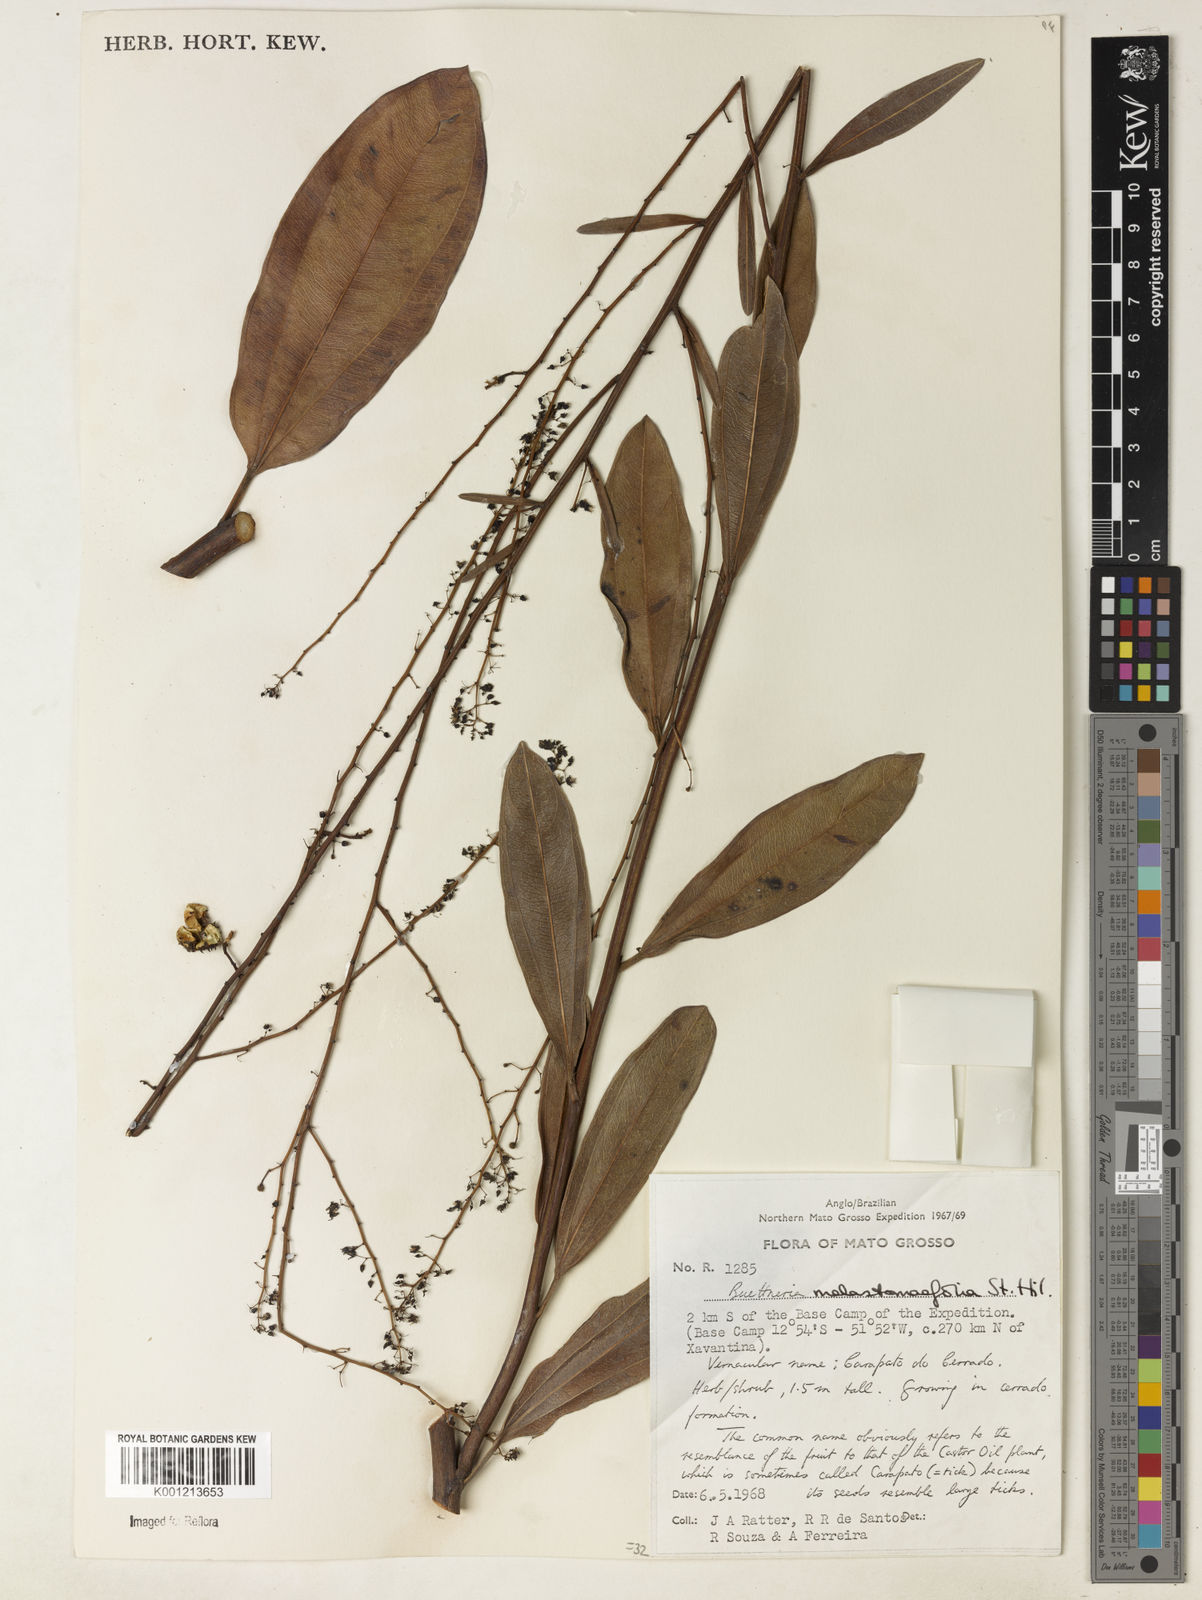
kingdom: Plantae
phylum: Tracheophyta
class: Magnoliopsida
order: Malvales
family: Malvaceae
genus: Byttneria
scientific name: Byttneria melastomifolia
